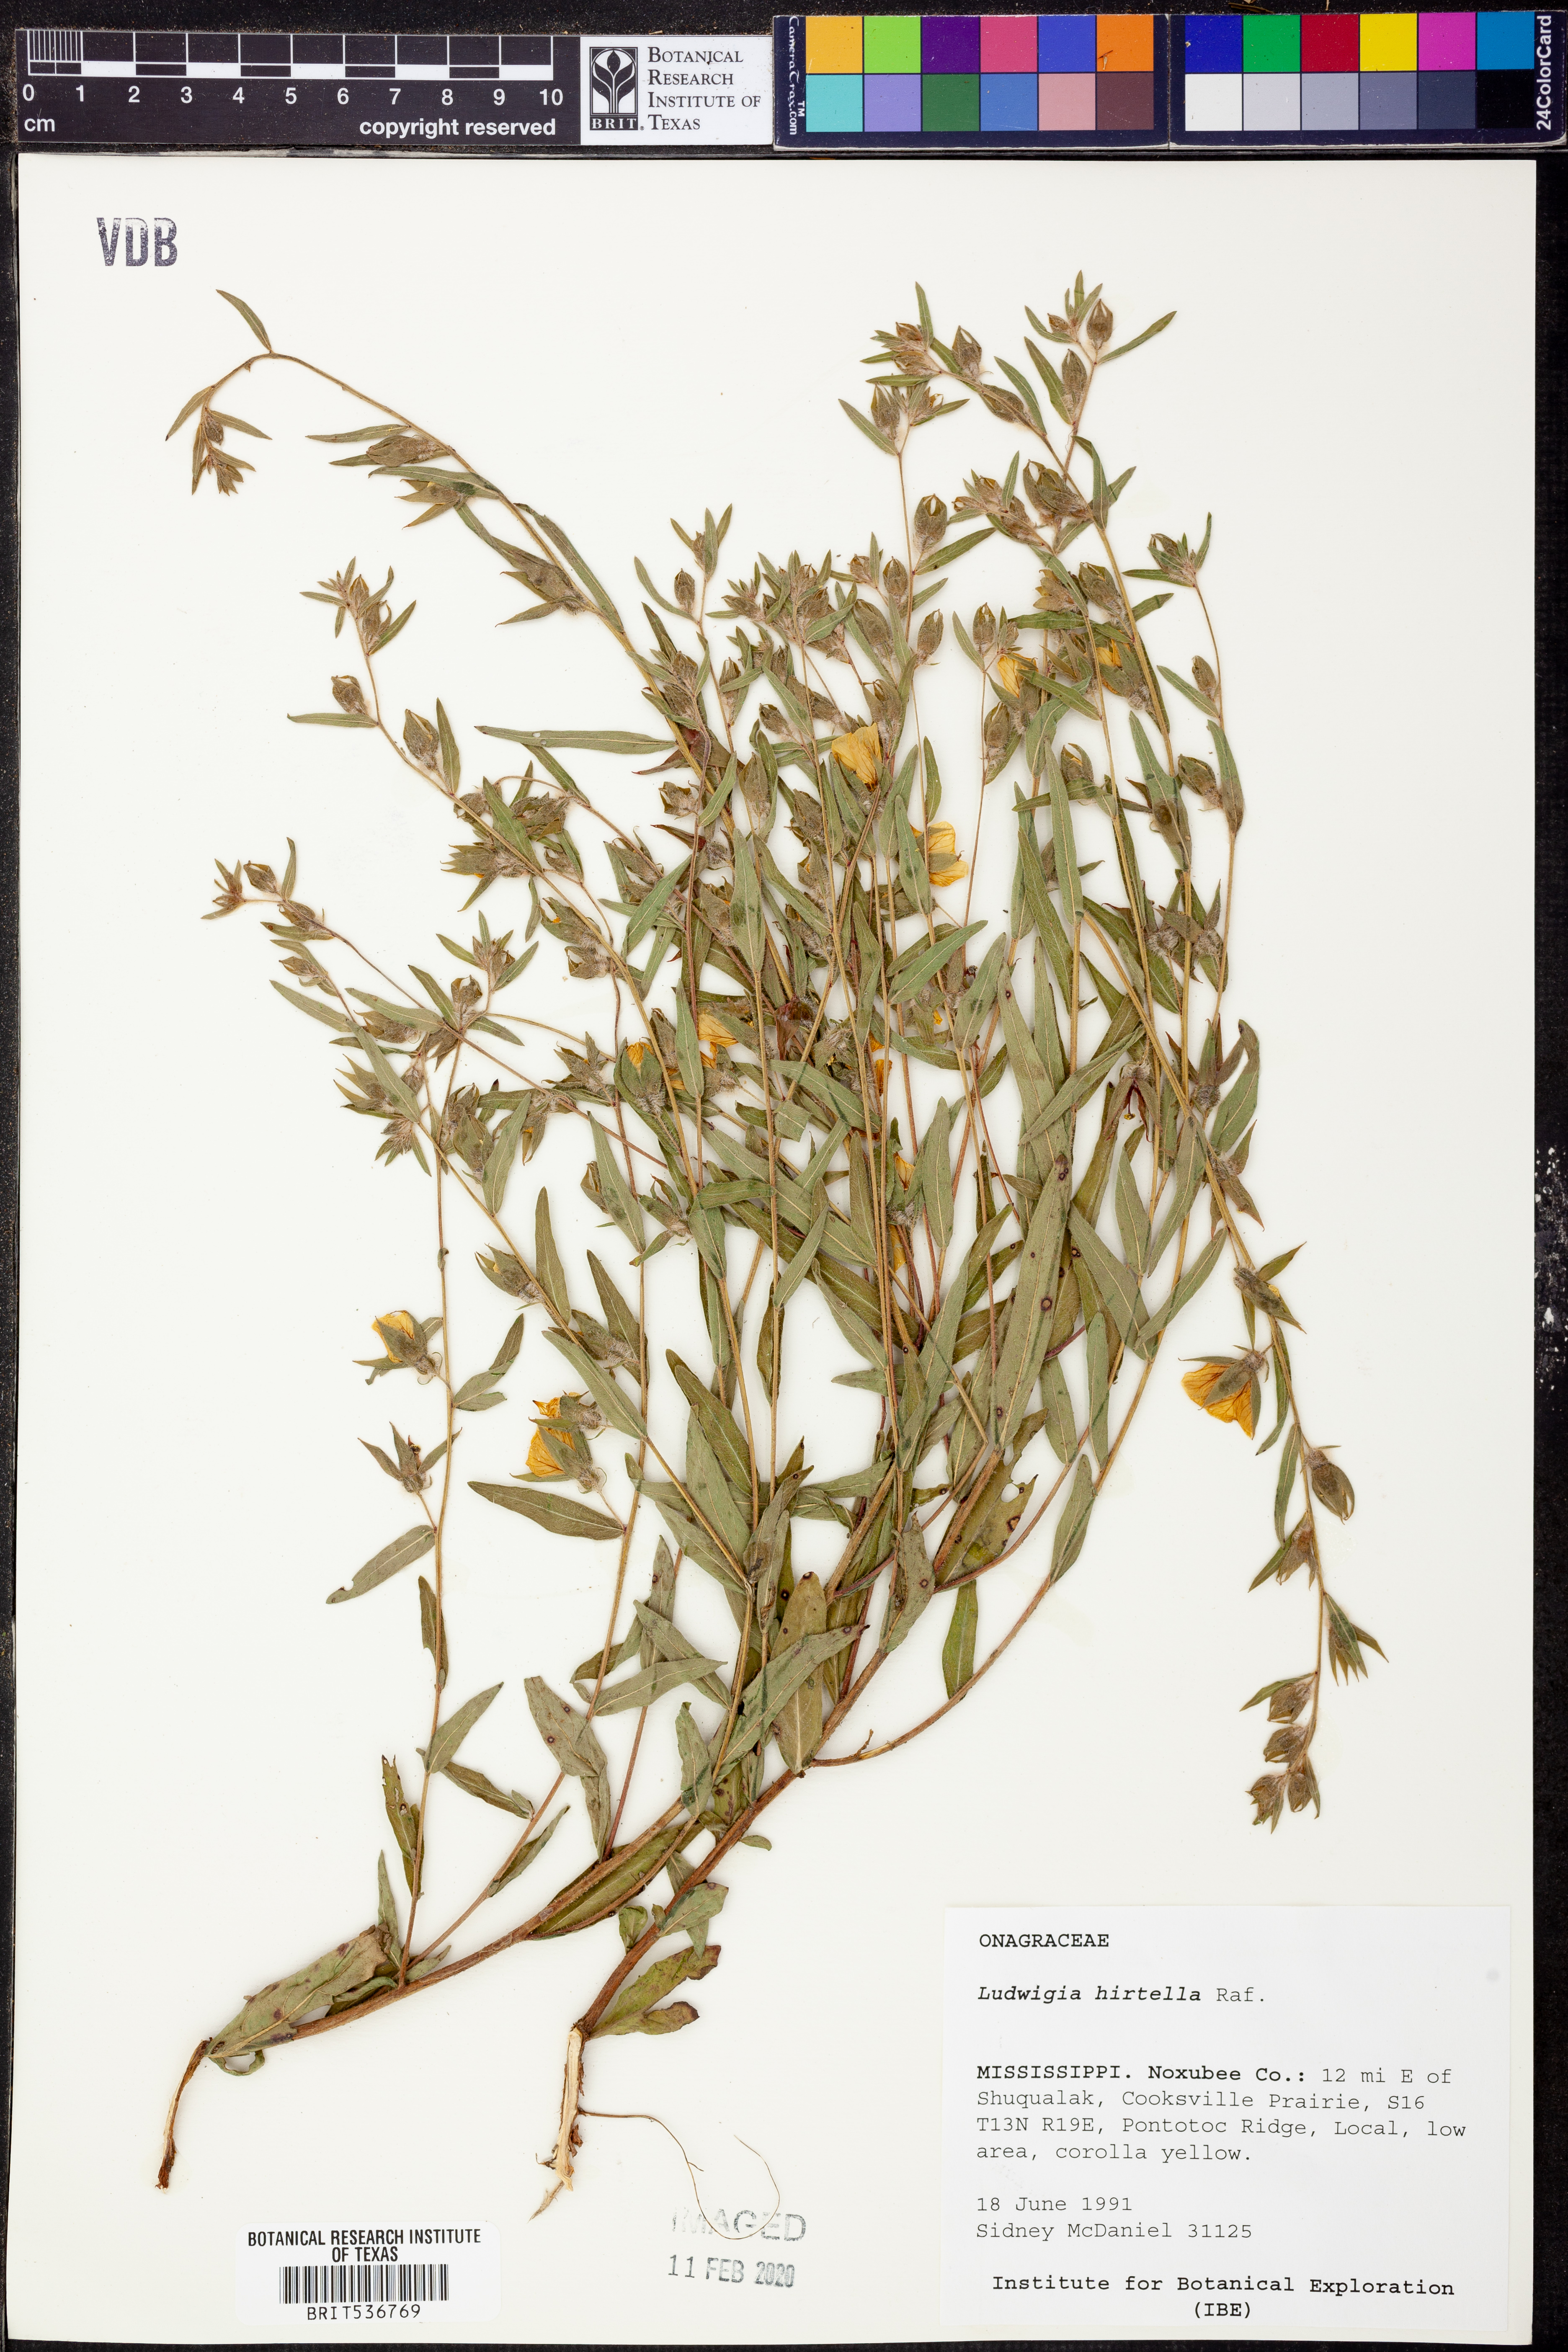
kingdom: Plantae
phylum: Tracheophyta
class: Magnoliopsida
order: Myrtales
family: Onagraceae
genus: Ludwigia
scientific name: Ludwigia hirtella
